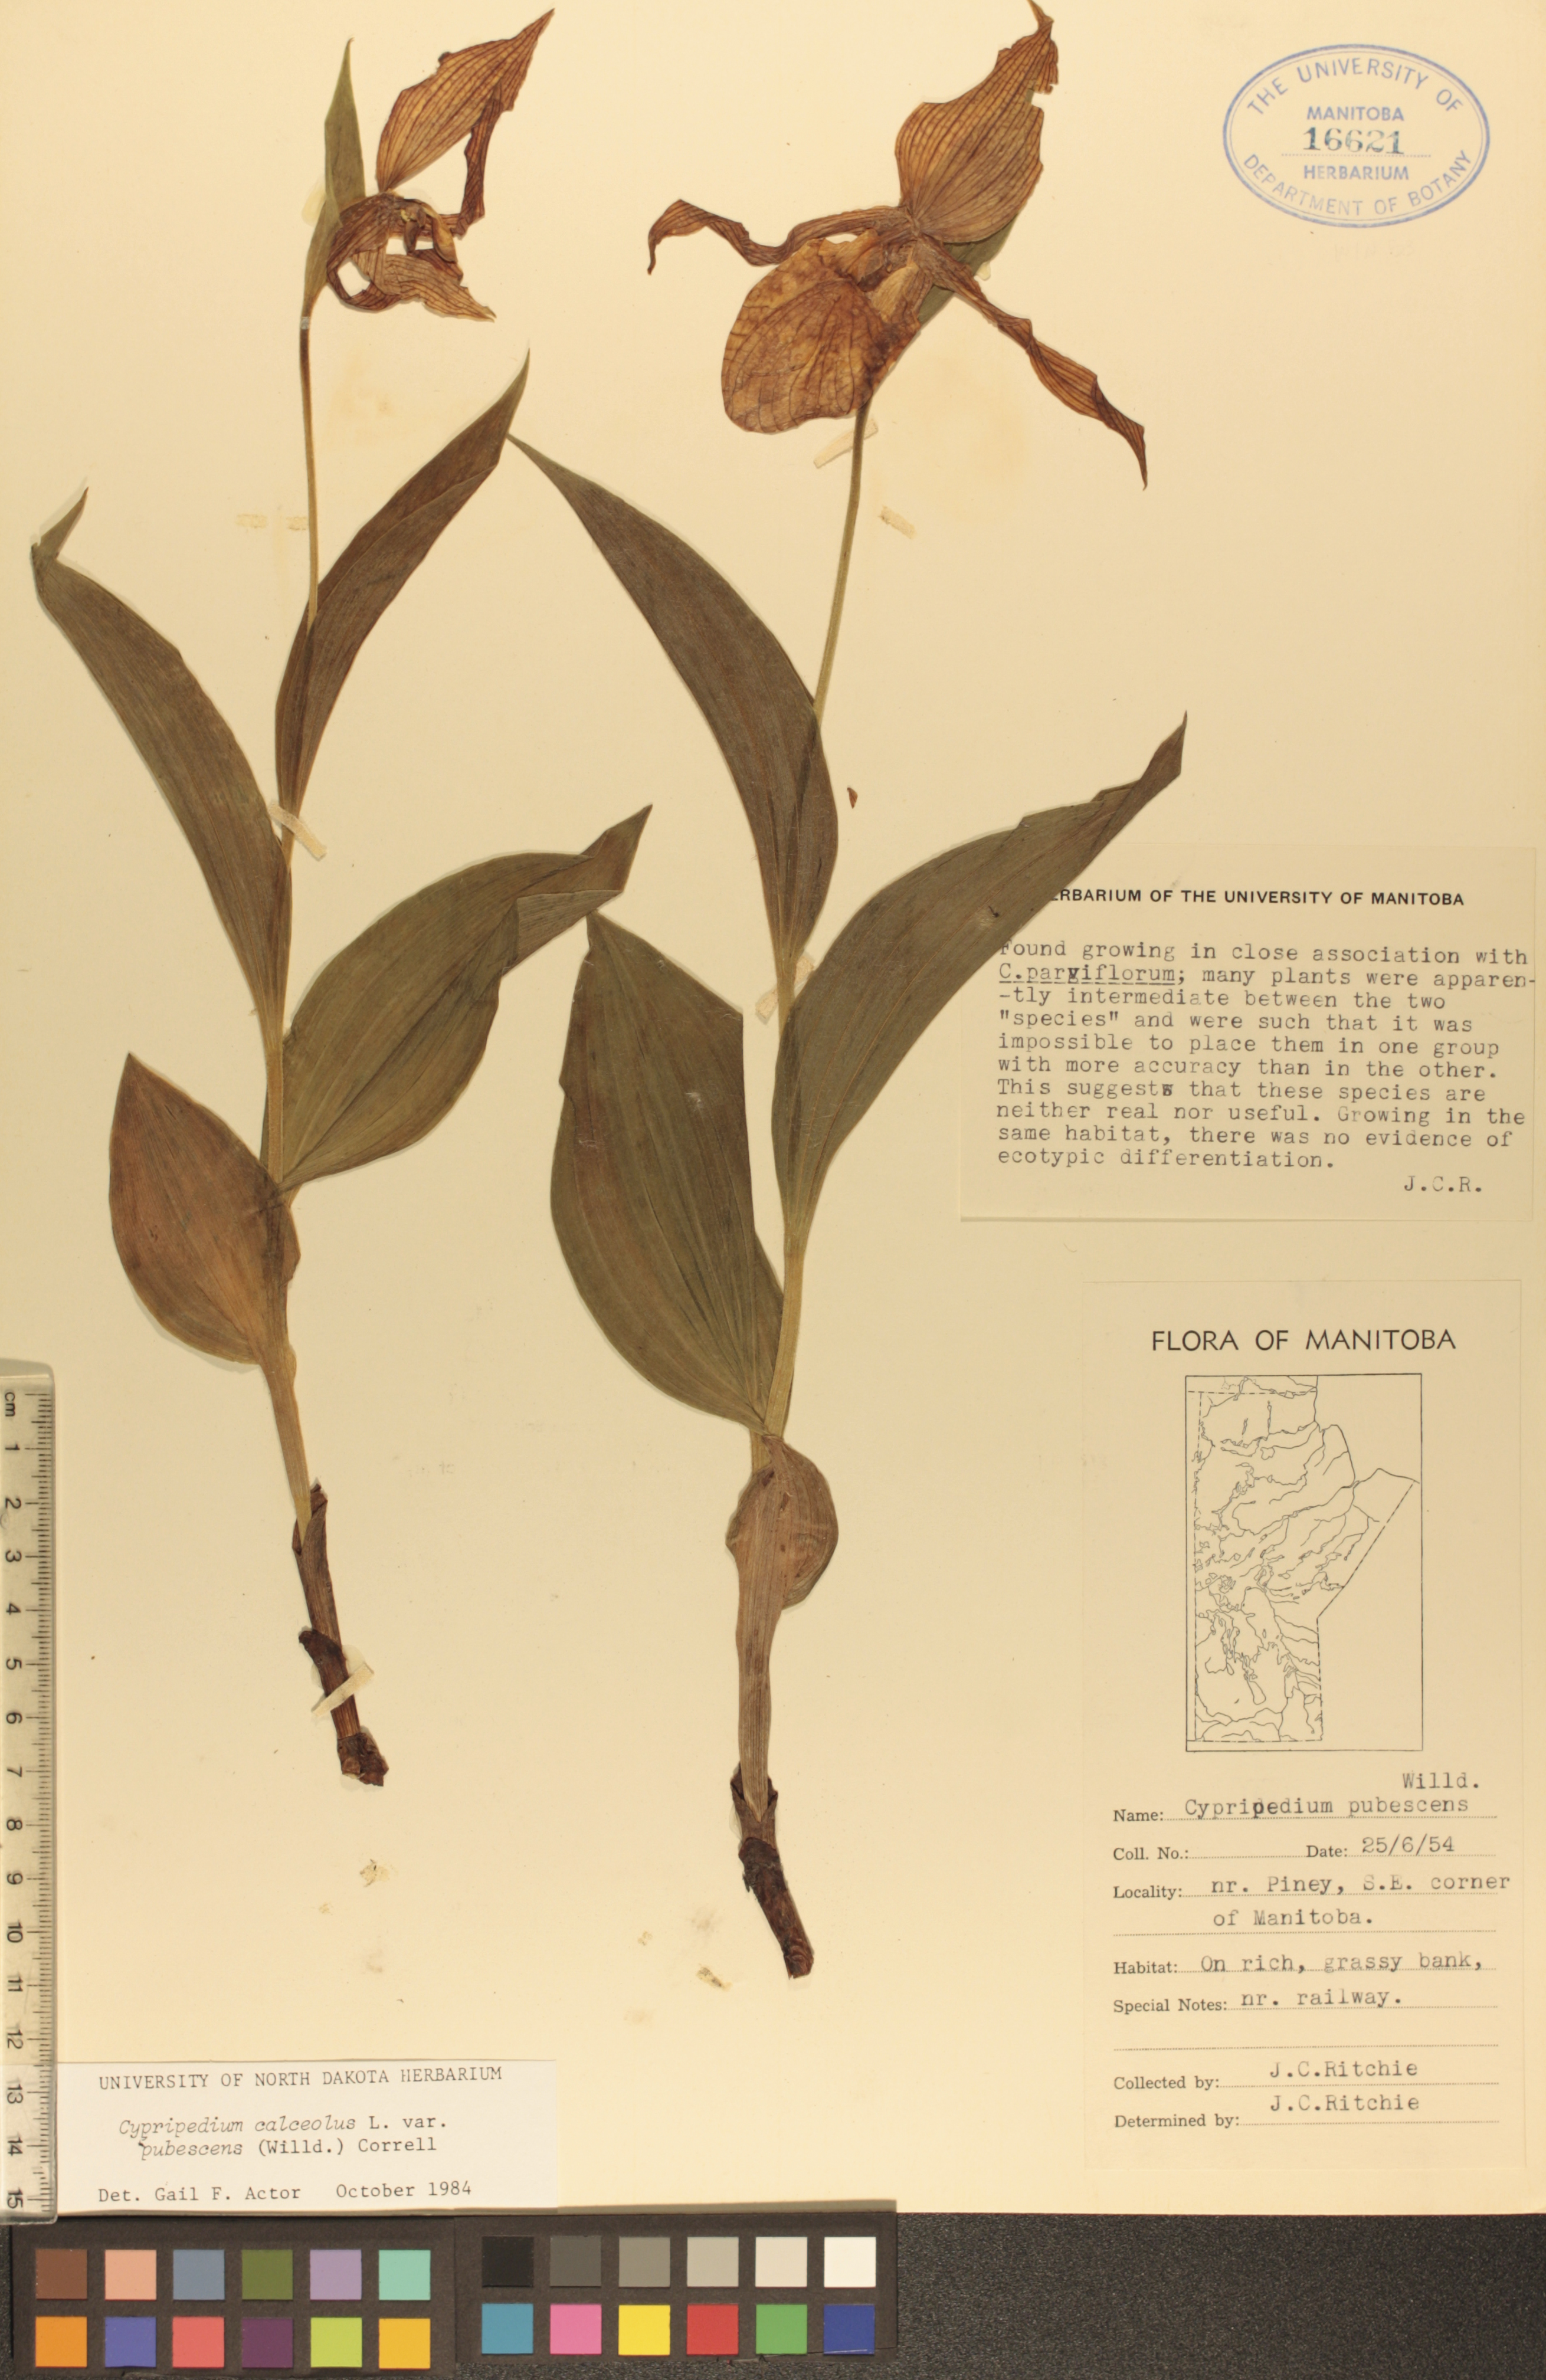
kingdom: Plantae
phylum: Tracheophyta
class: Liliopsida
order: Asparagales
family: Orchidaceae
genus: Cypripedium
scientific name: Cypripedium parviflorum
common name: American yellow lady's-slipper
